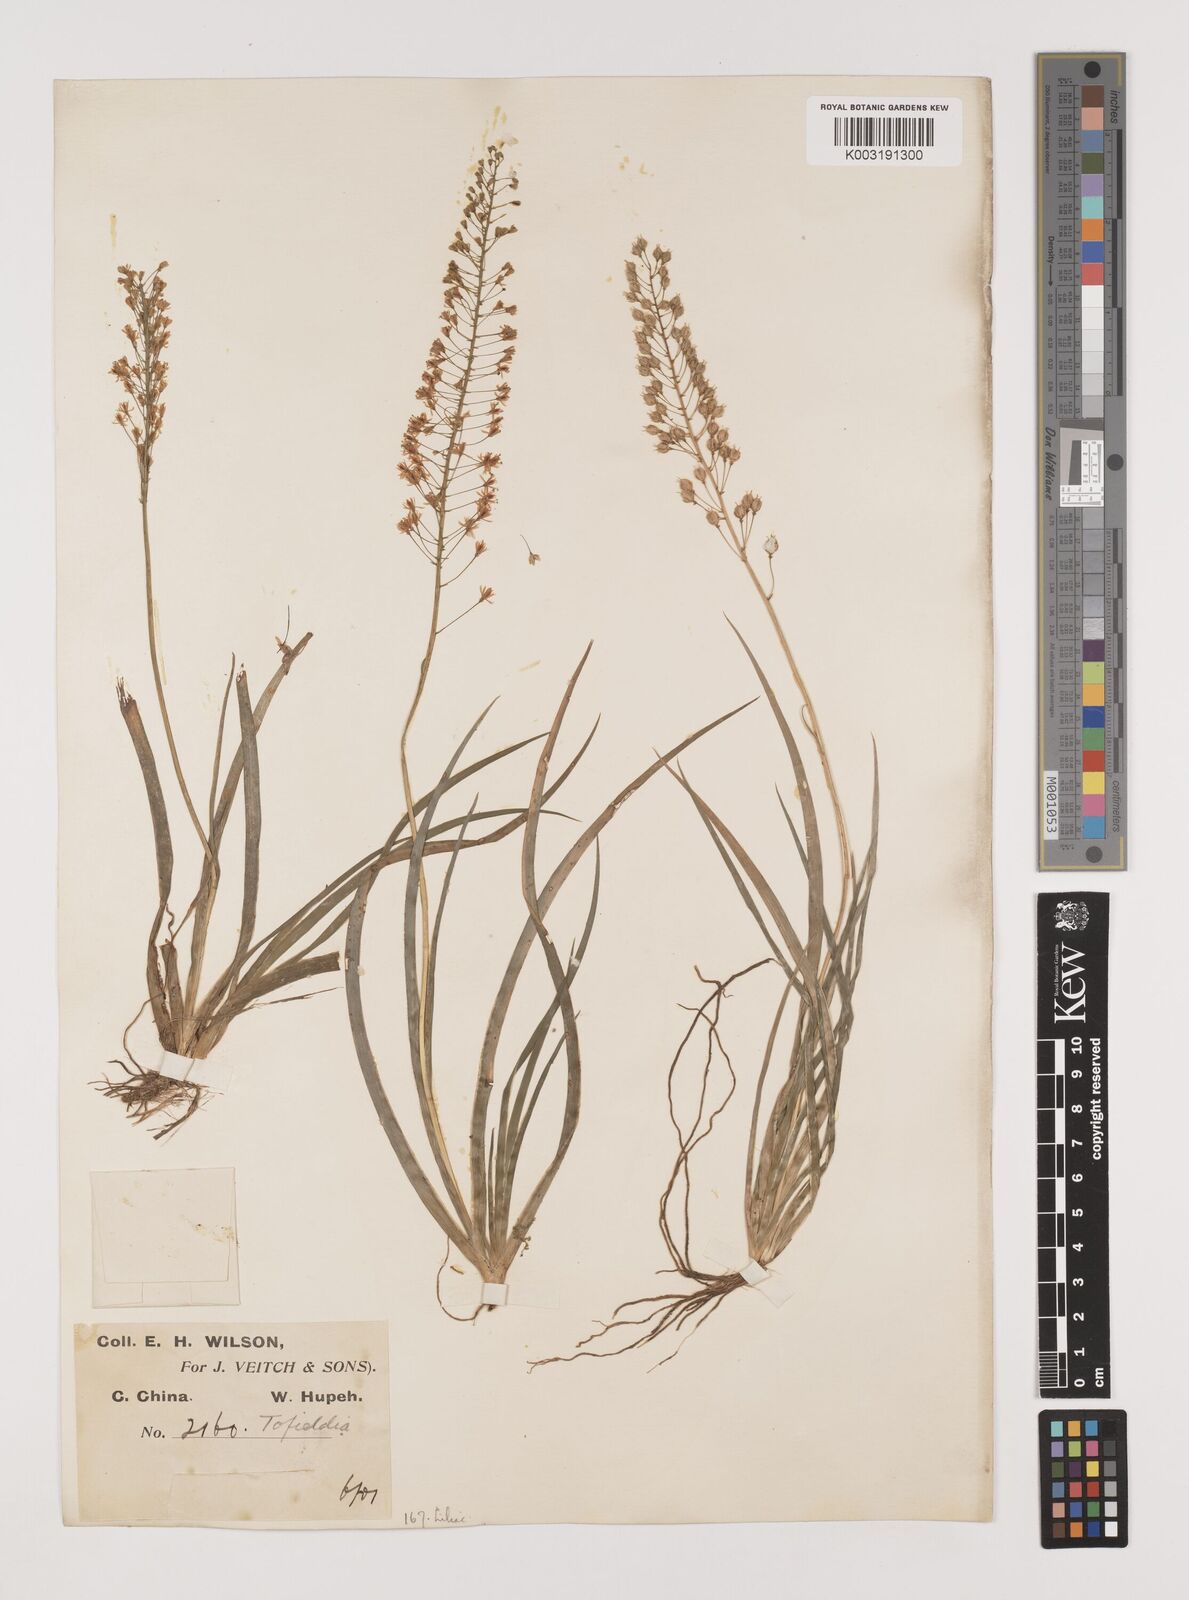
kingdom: Plantae
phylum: Tracheophyta
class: Liliopsida
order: Alismatales
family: Tofieldiaceae
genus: Tofieldia
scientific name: Tofieldia thibetica
